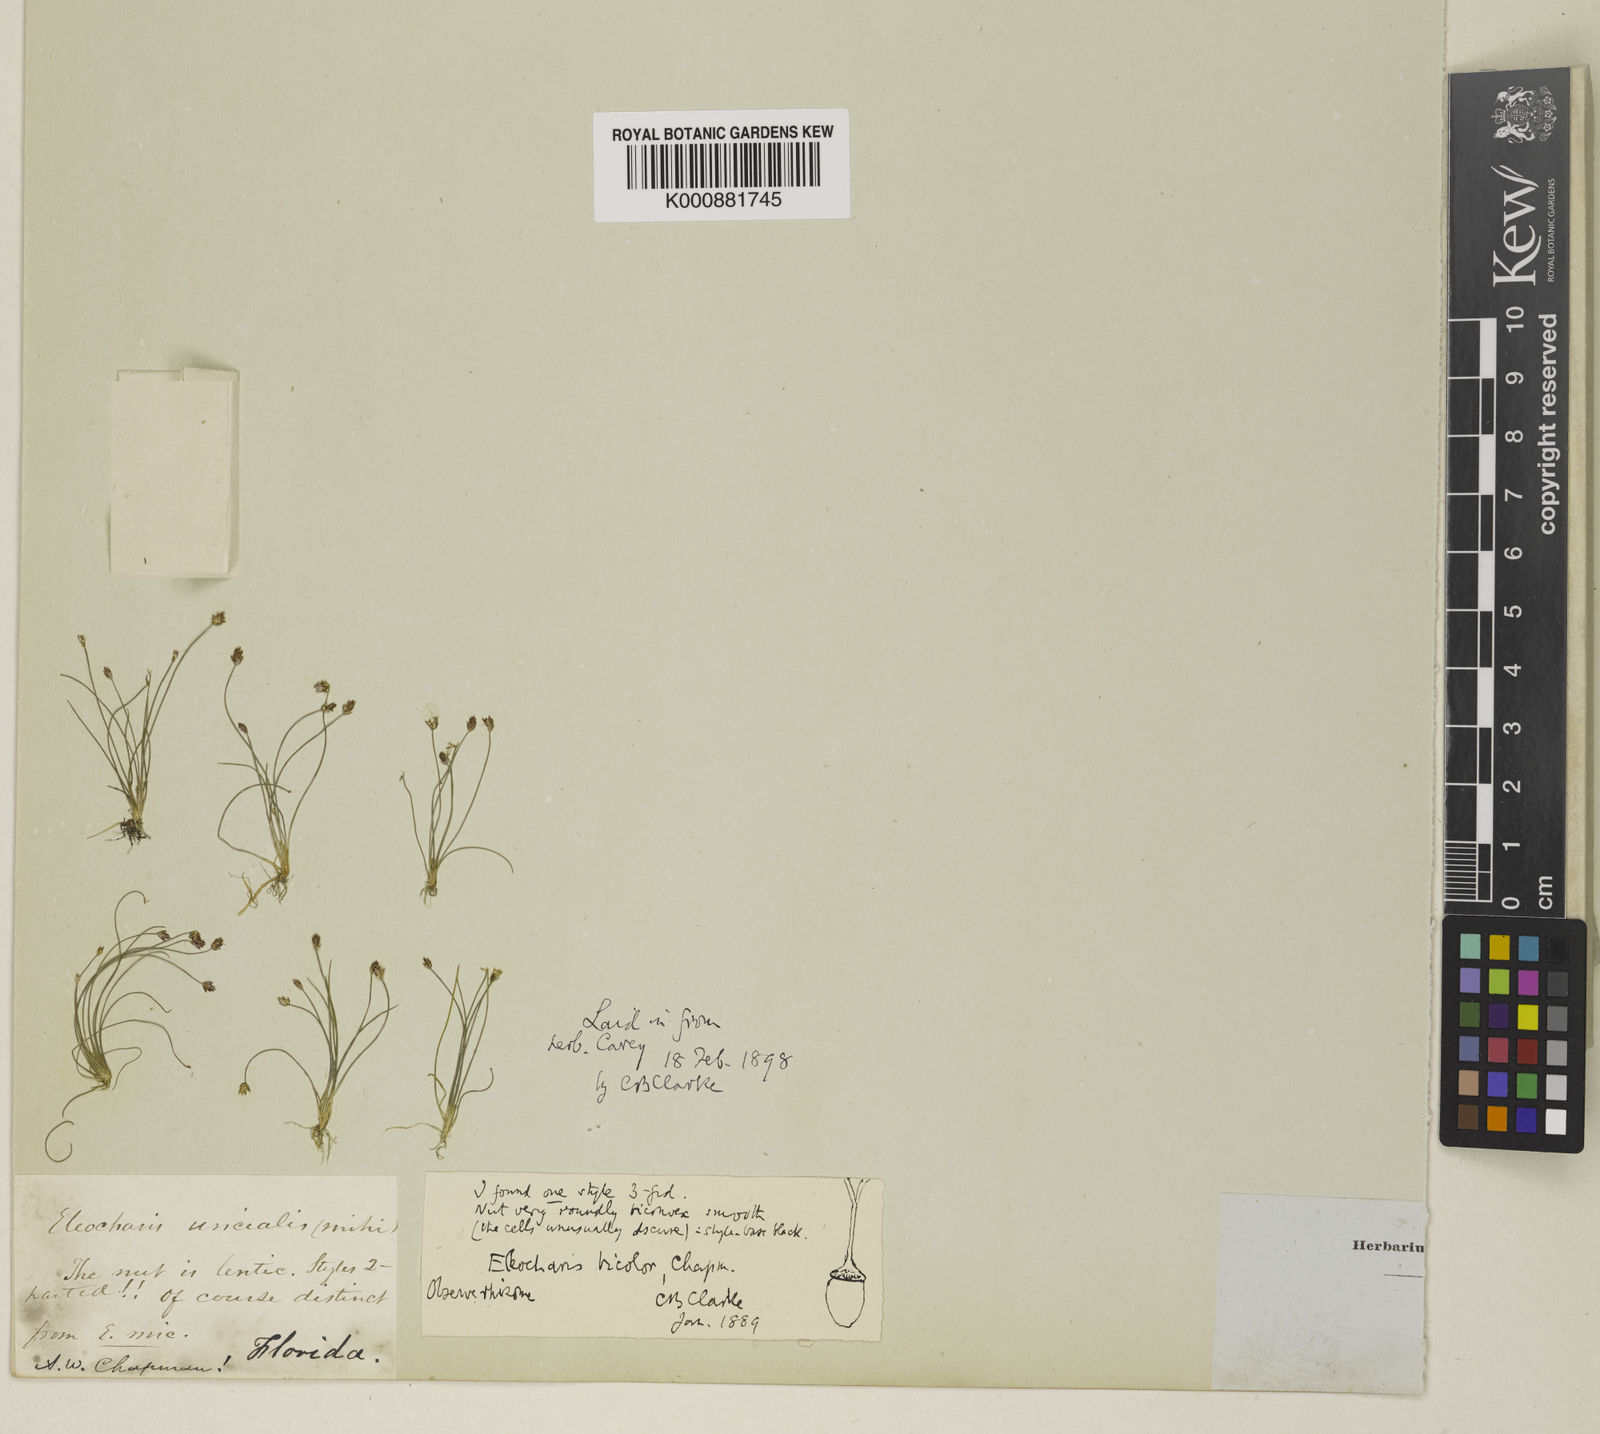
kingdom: Plantae
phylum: Tracheophyta
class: Liliopsida
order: Poales
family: Cyperaceae
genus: Eleocharis
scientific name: Eleocharis minima
